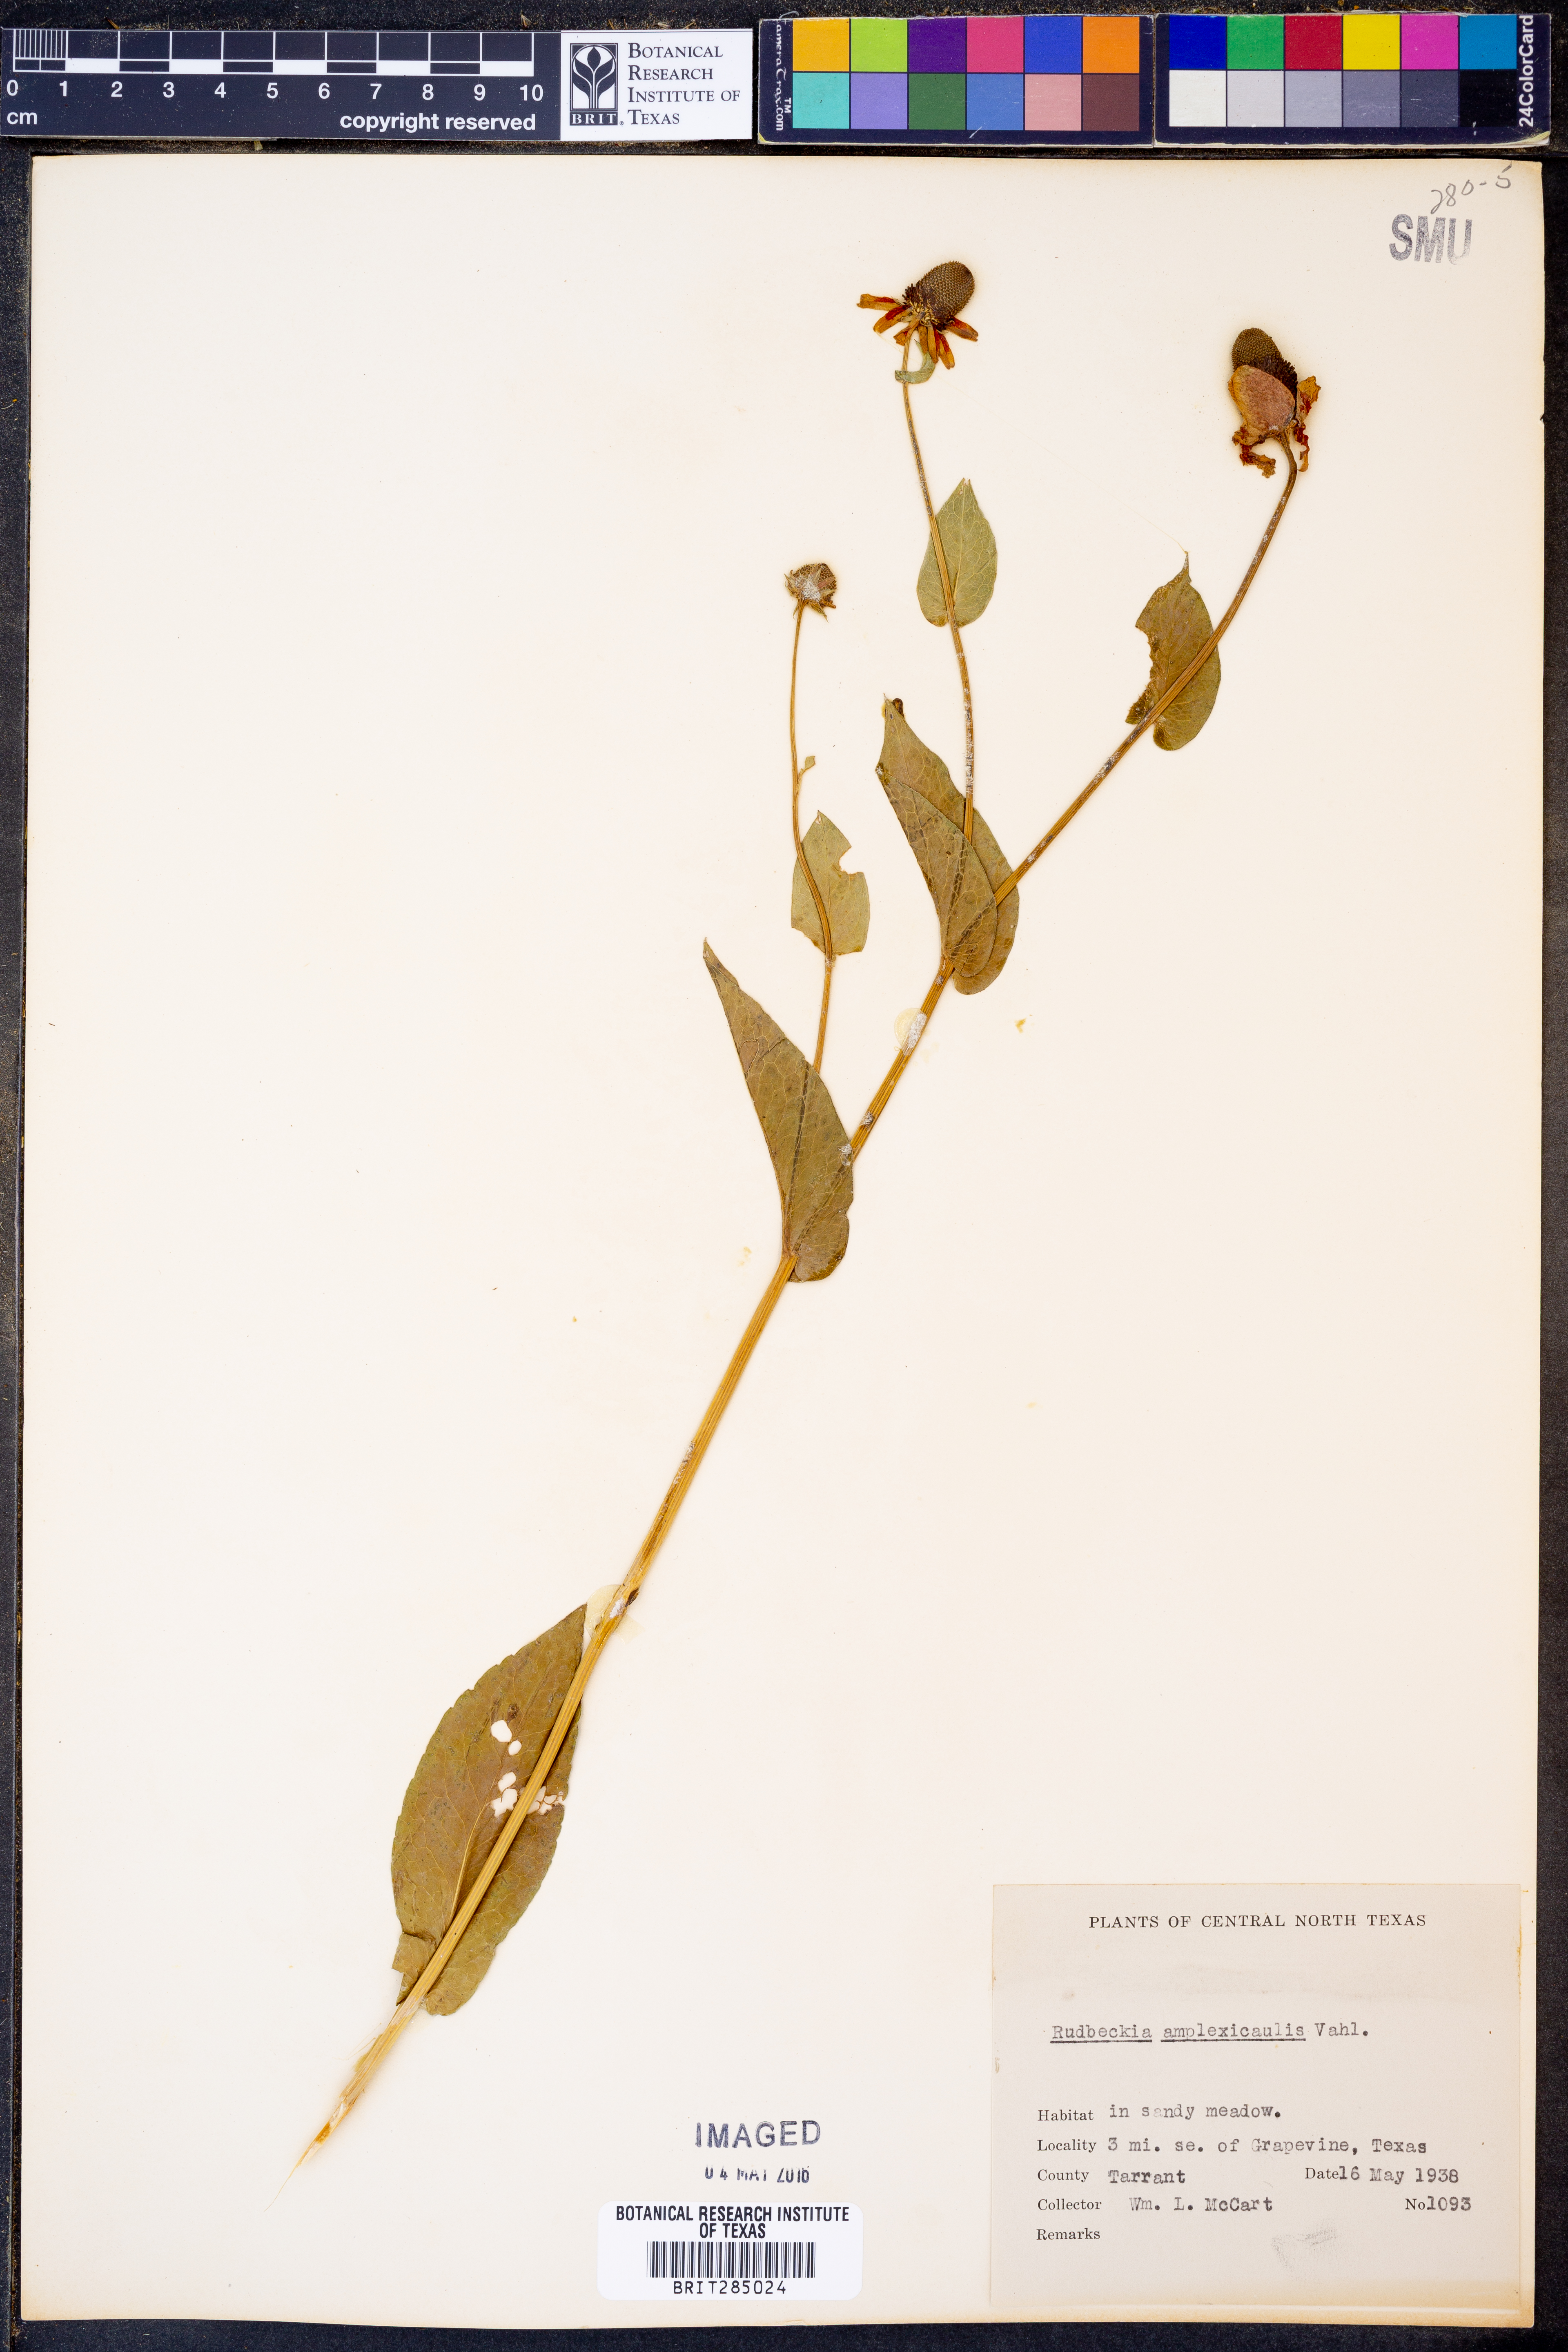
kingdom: Plantae
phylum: Tracheophyta
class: Magnoliopsida
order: Asterales
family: Asteraceae
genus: Rudbeckia
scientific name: Rudbeckia amplexicaulis
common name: Clasping-leaf coneflower
